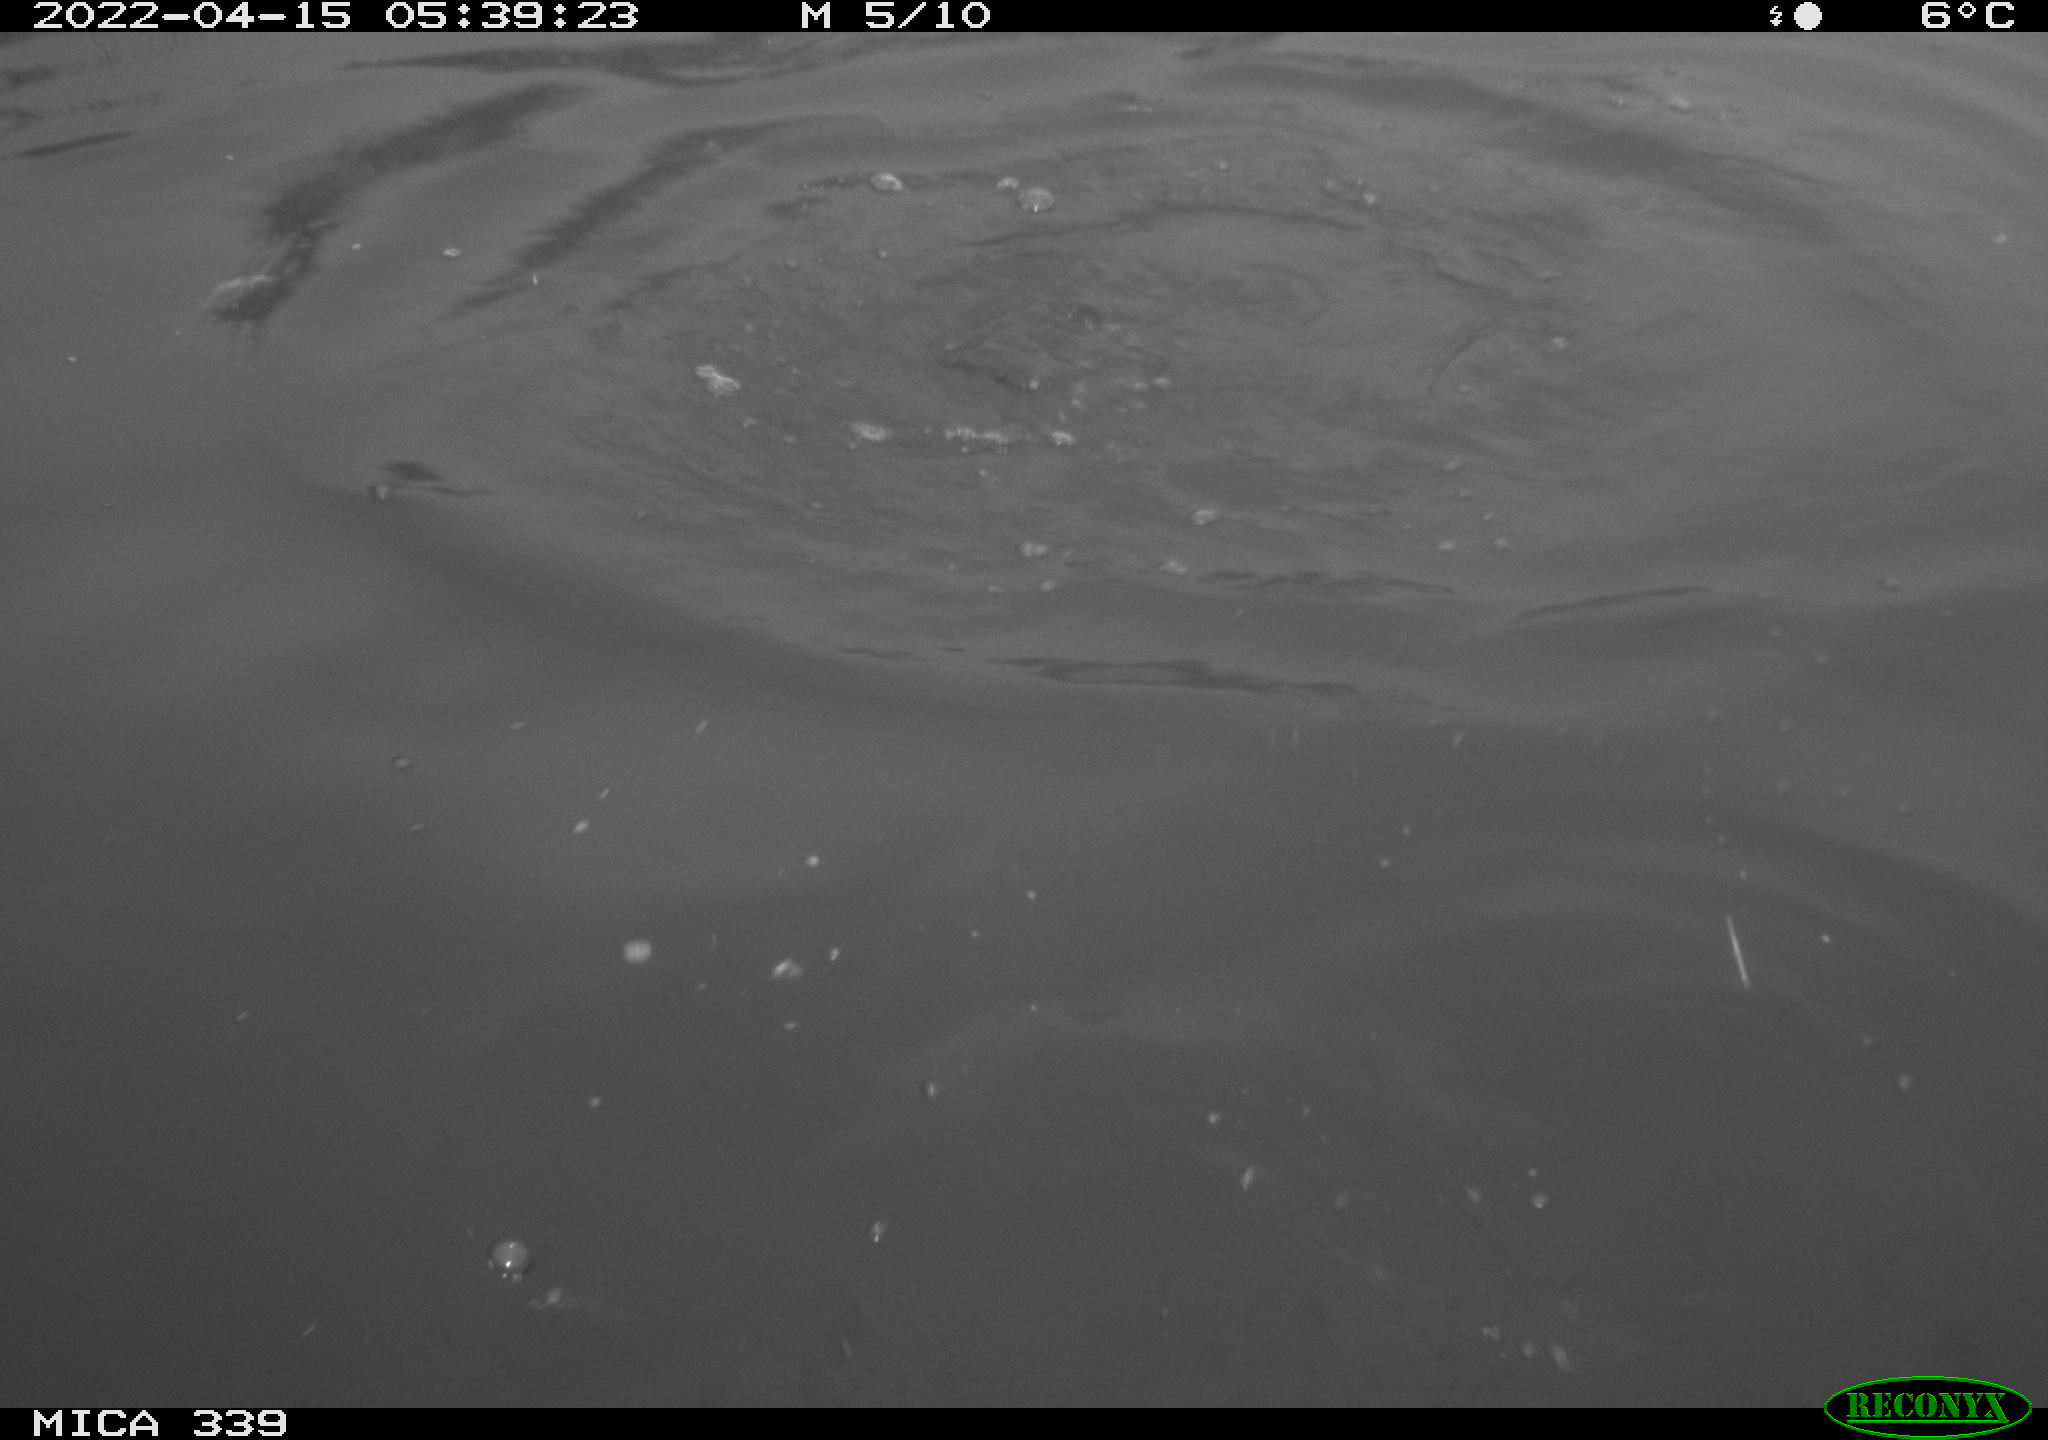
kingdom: Animalia
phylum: Chordata
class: Aves
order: Suliformes
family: Phalacrocoracidae
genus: Phalacrocorax
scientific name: Phalacrocorax carbo
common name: Great cormorant
